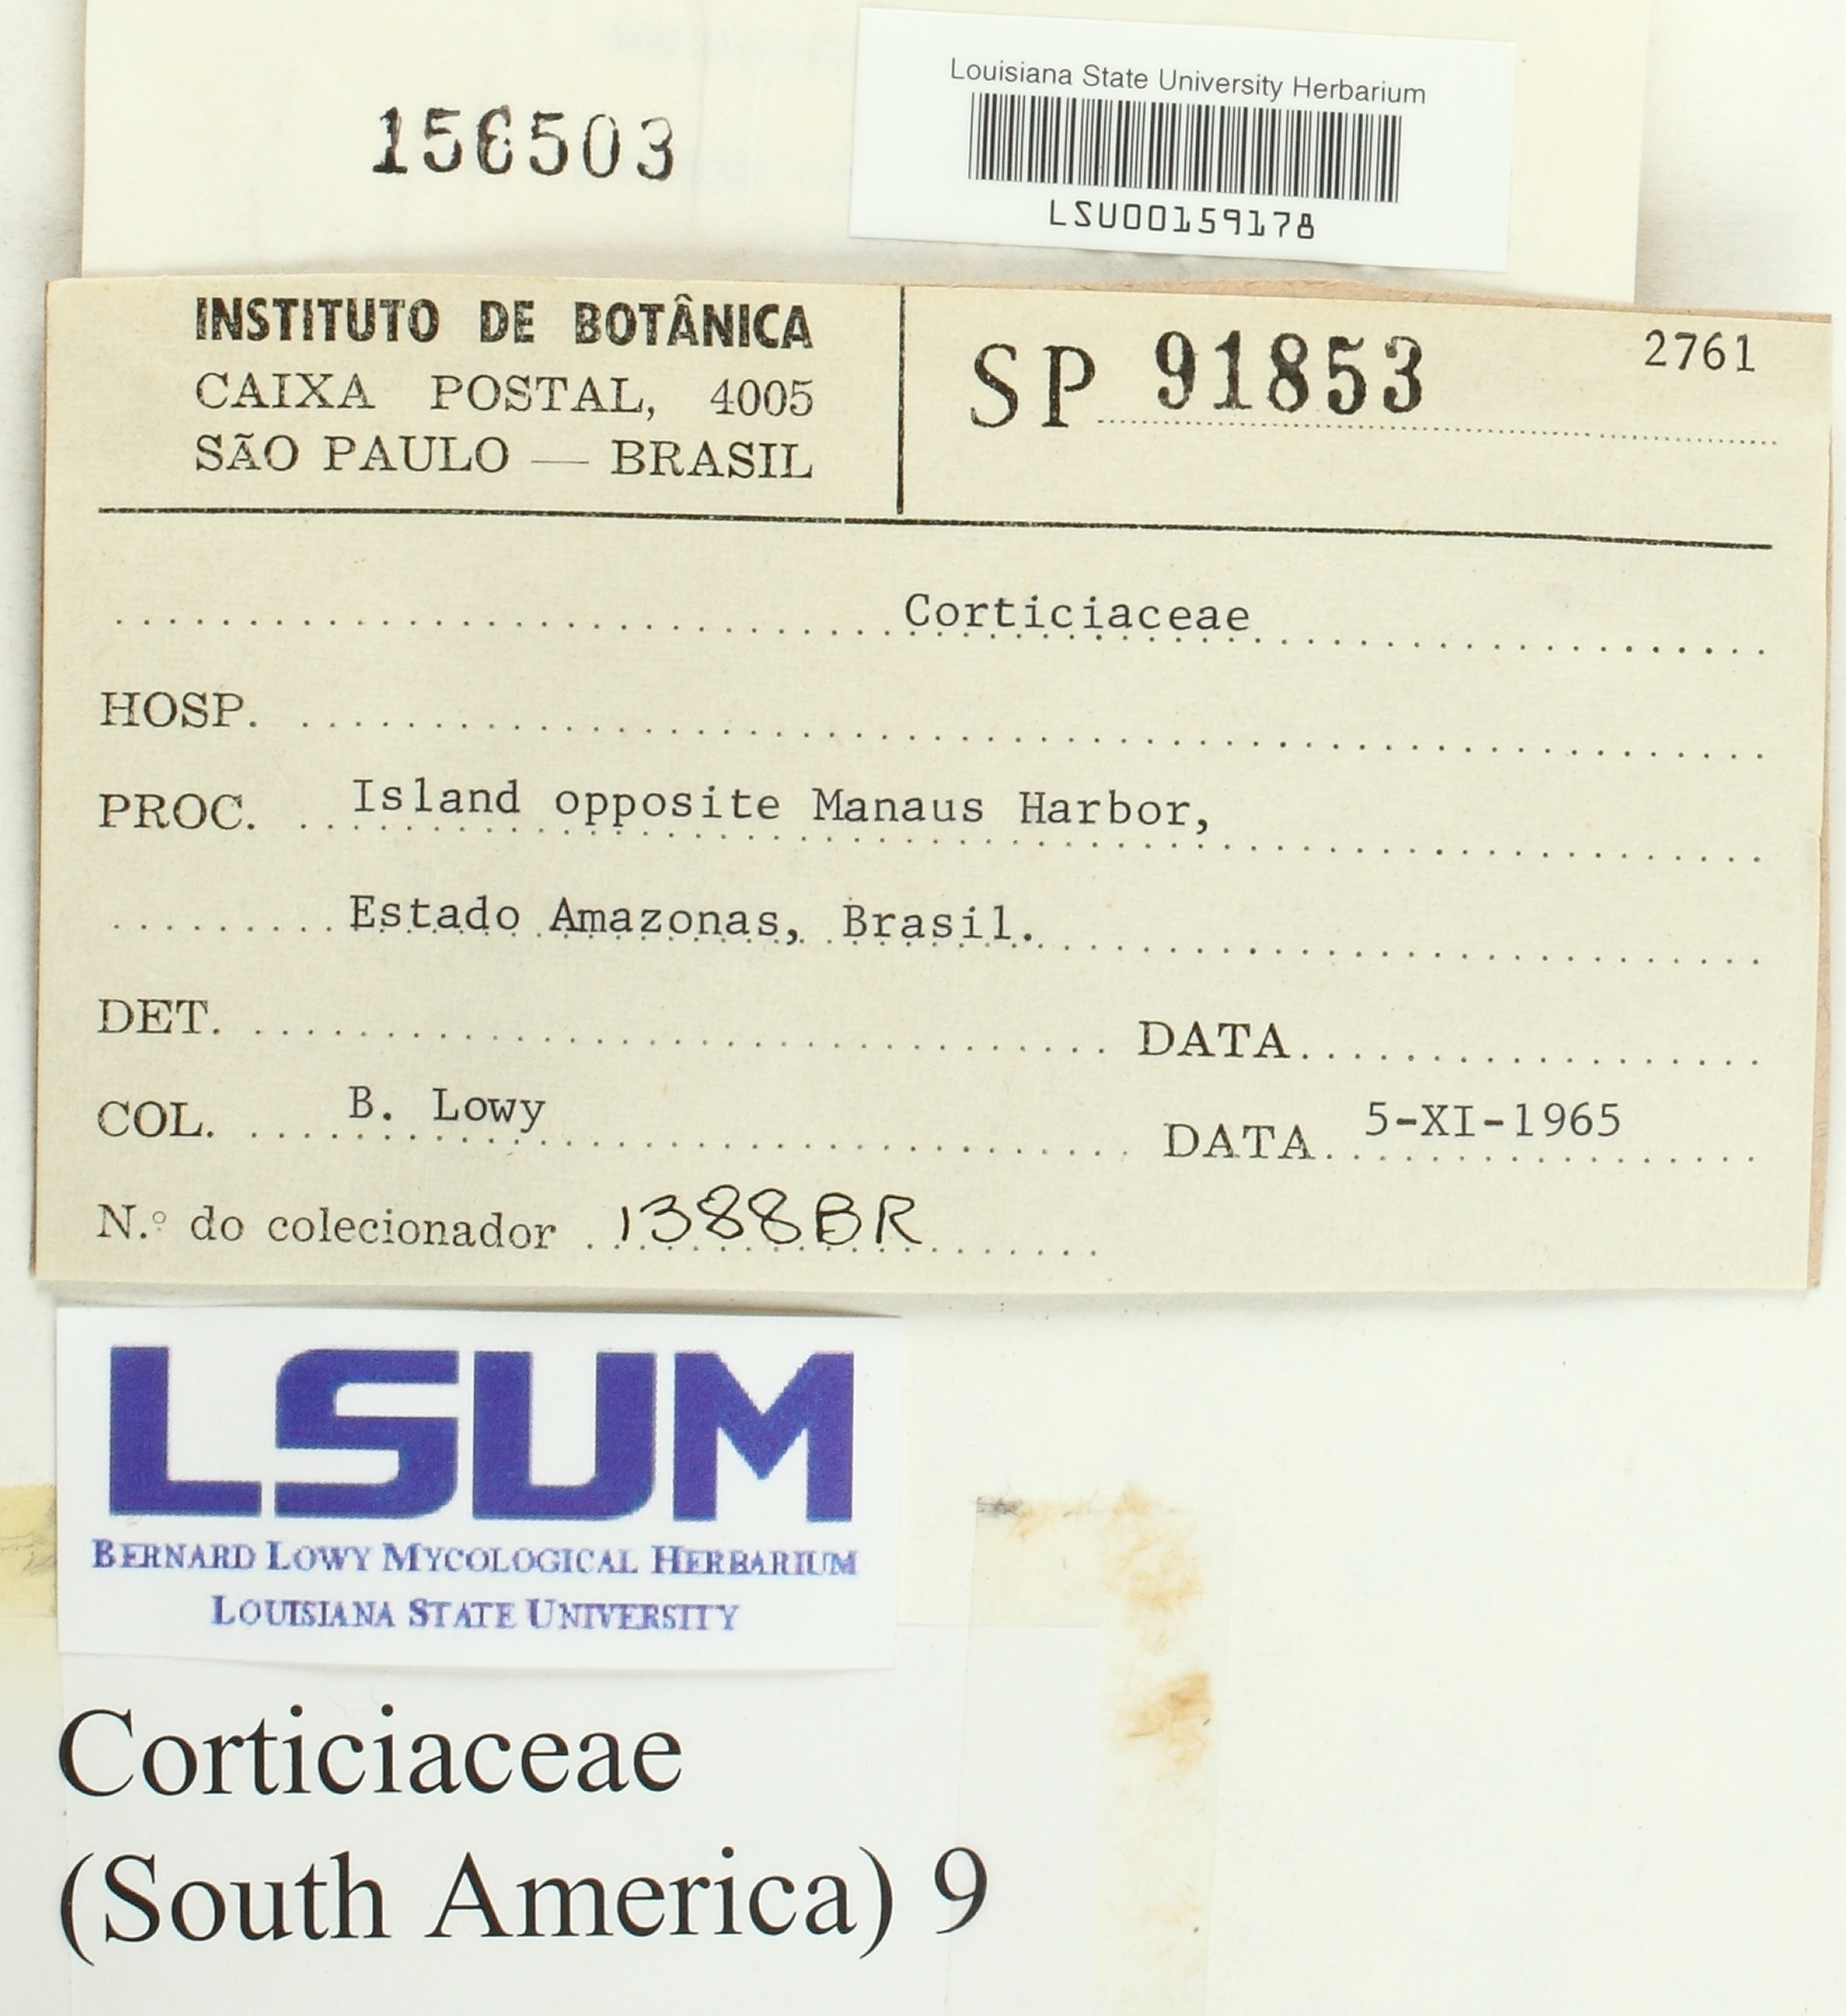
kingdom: Fungi
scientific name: Fungi
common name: Fungi
